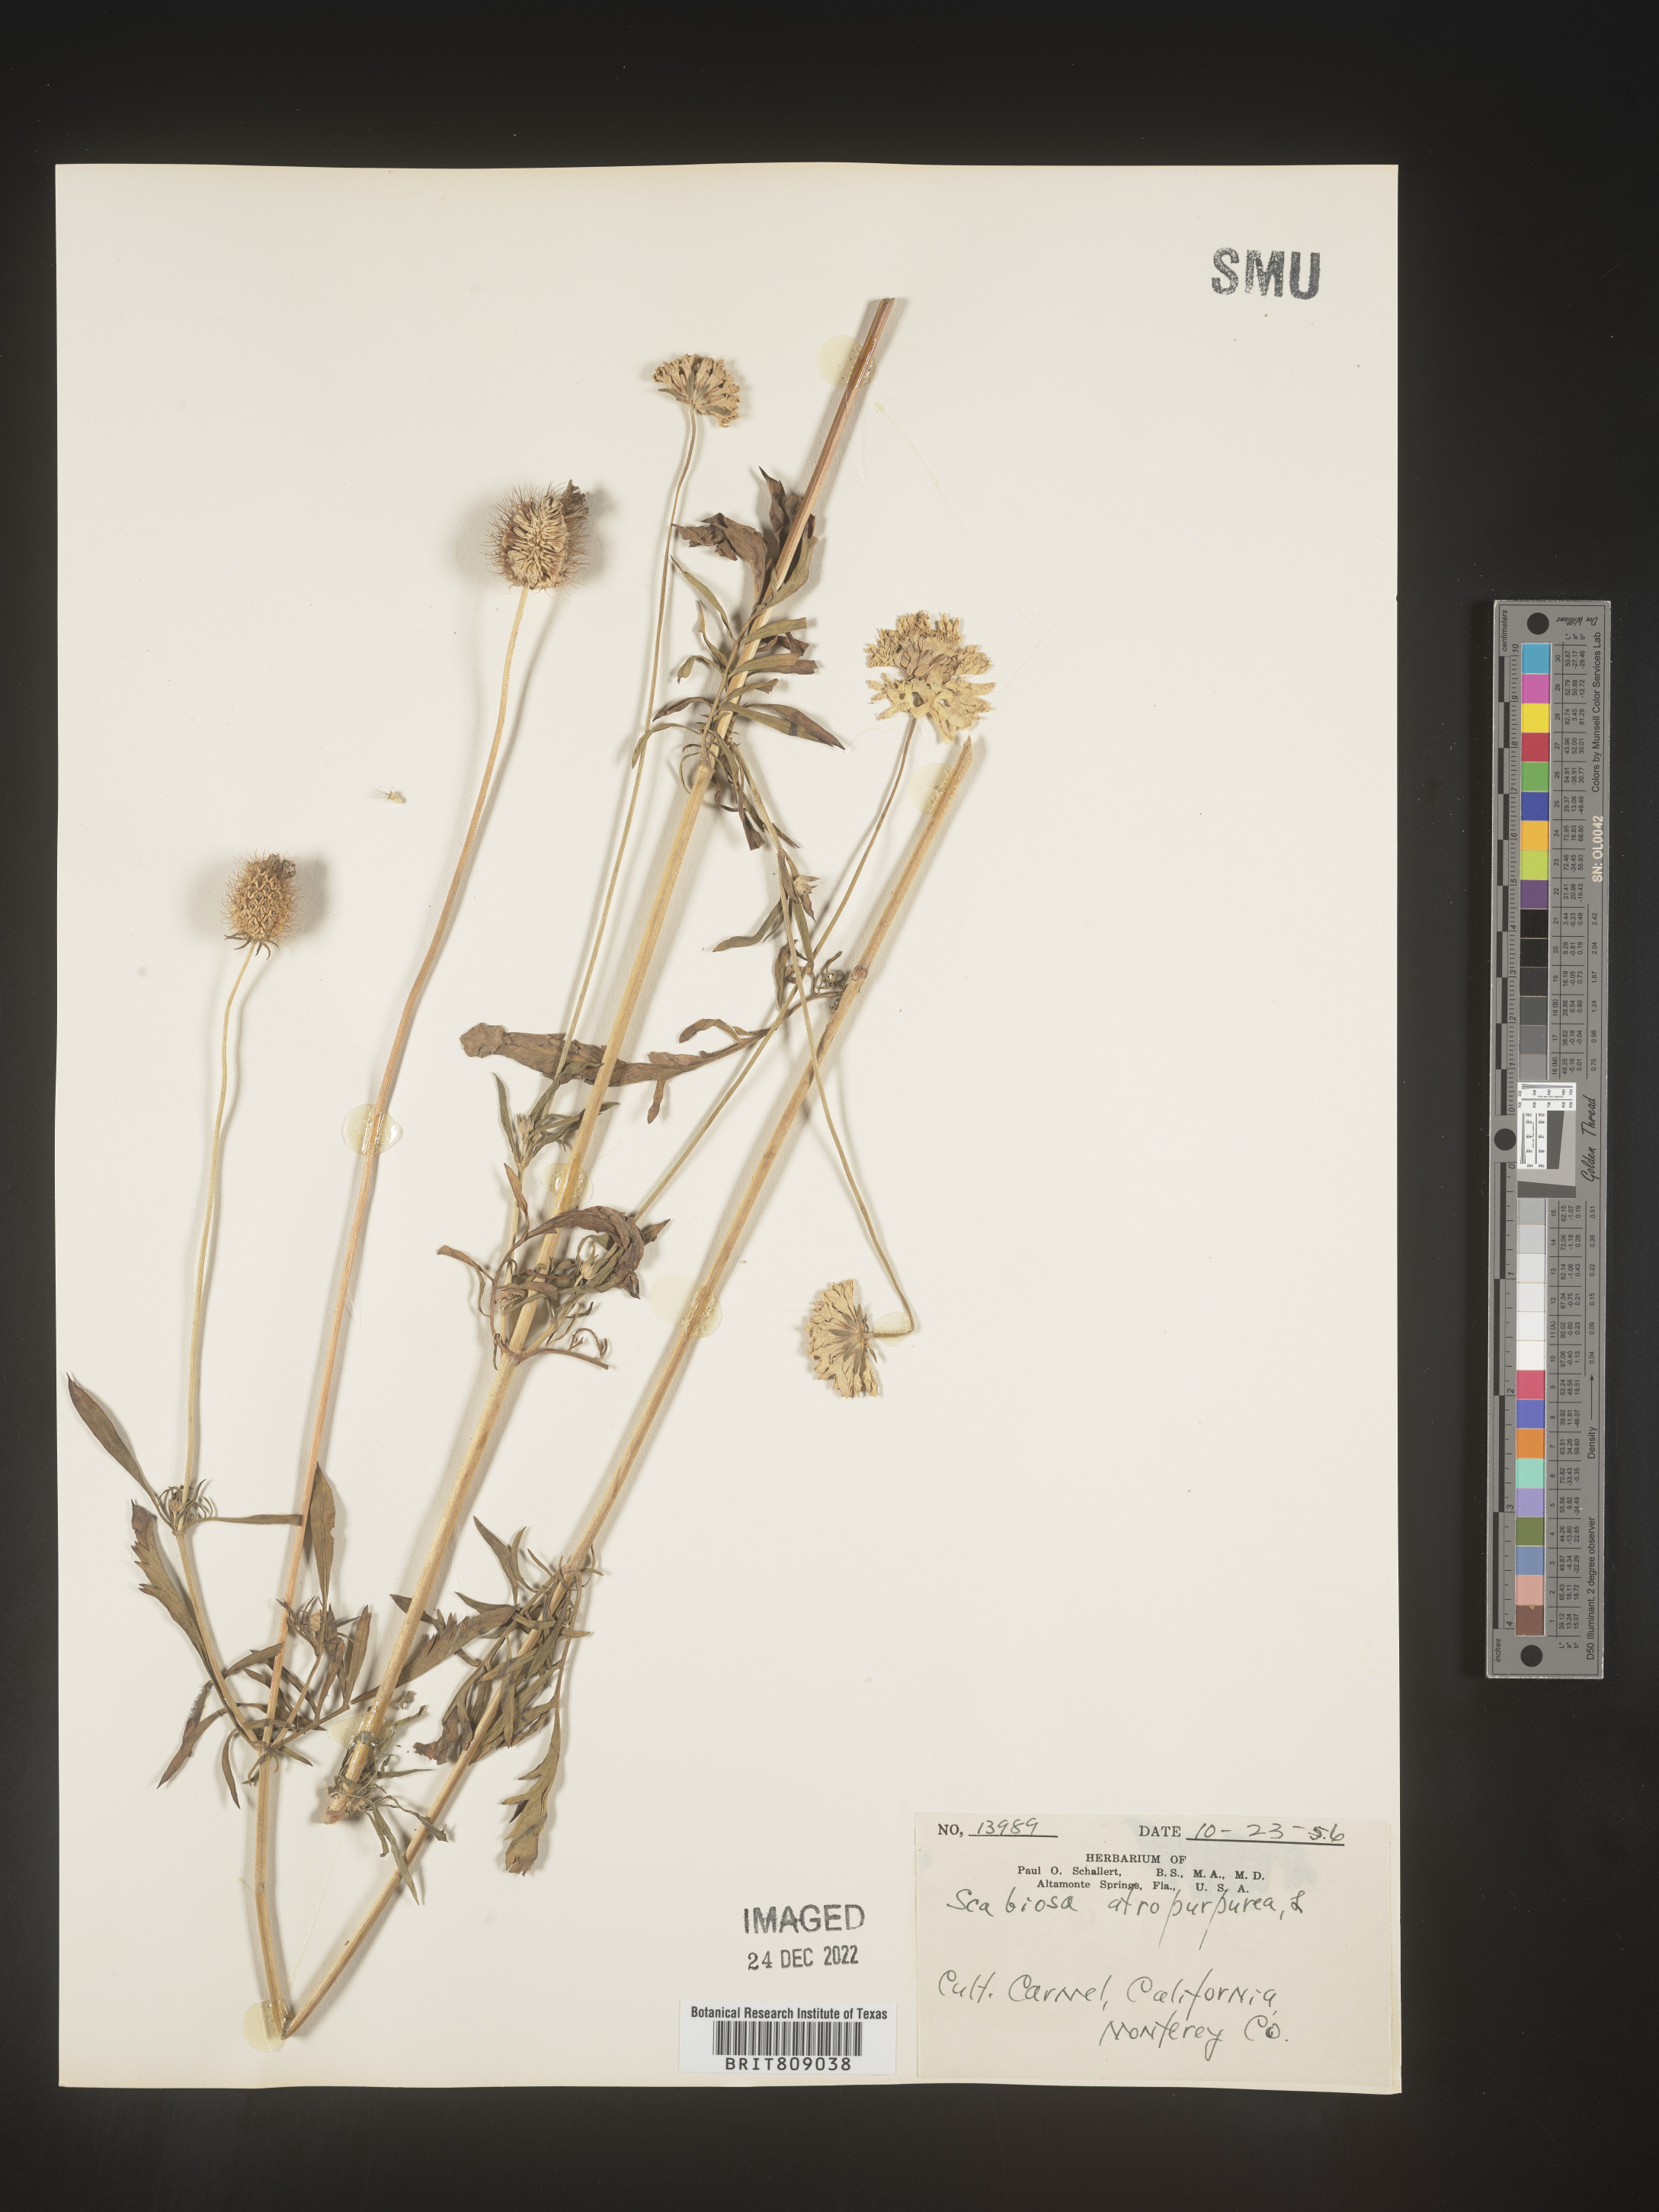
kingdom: Plantae
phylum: Tracheophyta
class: Magnoliopsida
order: Dipsacales
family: Caprifoliaceae
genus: Scabiosa
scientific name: Scabiosa
